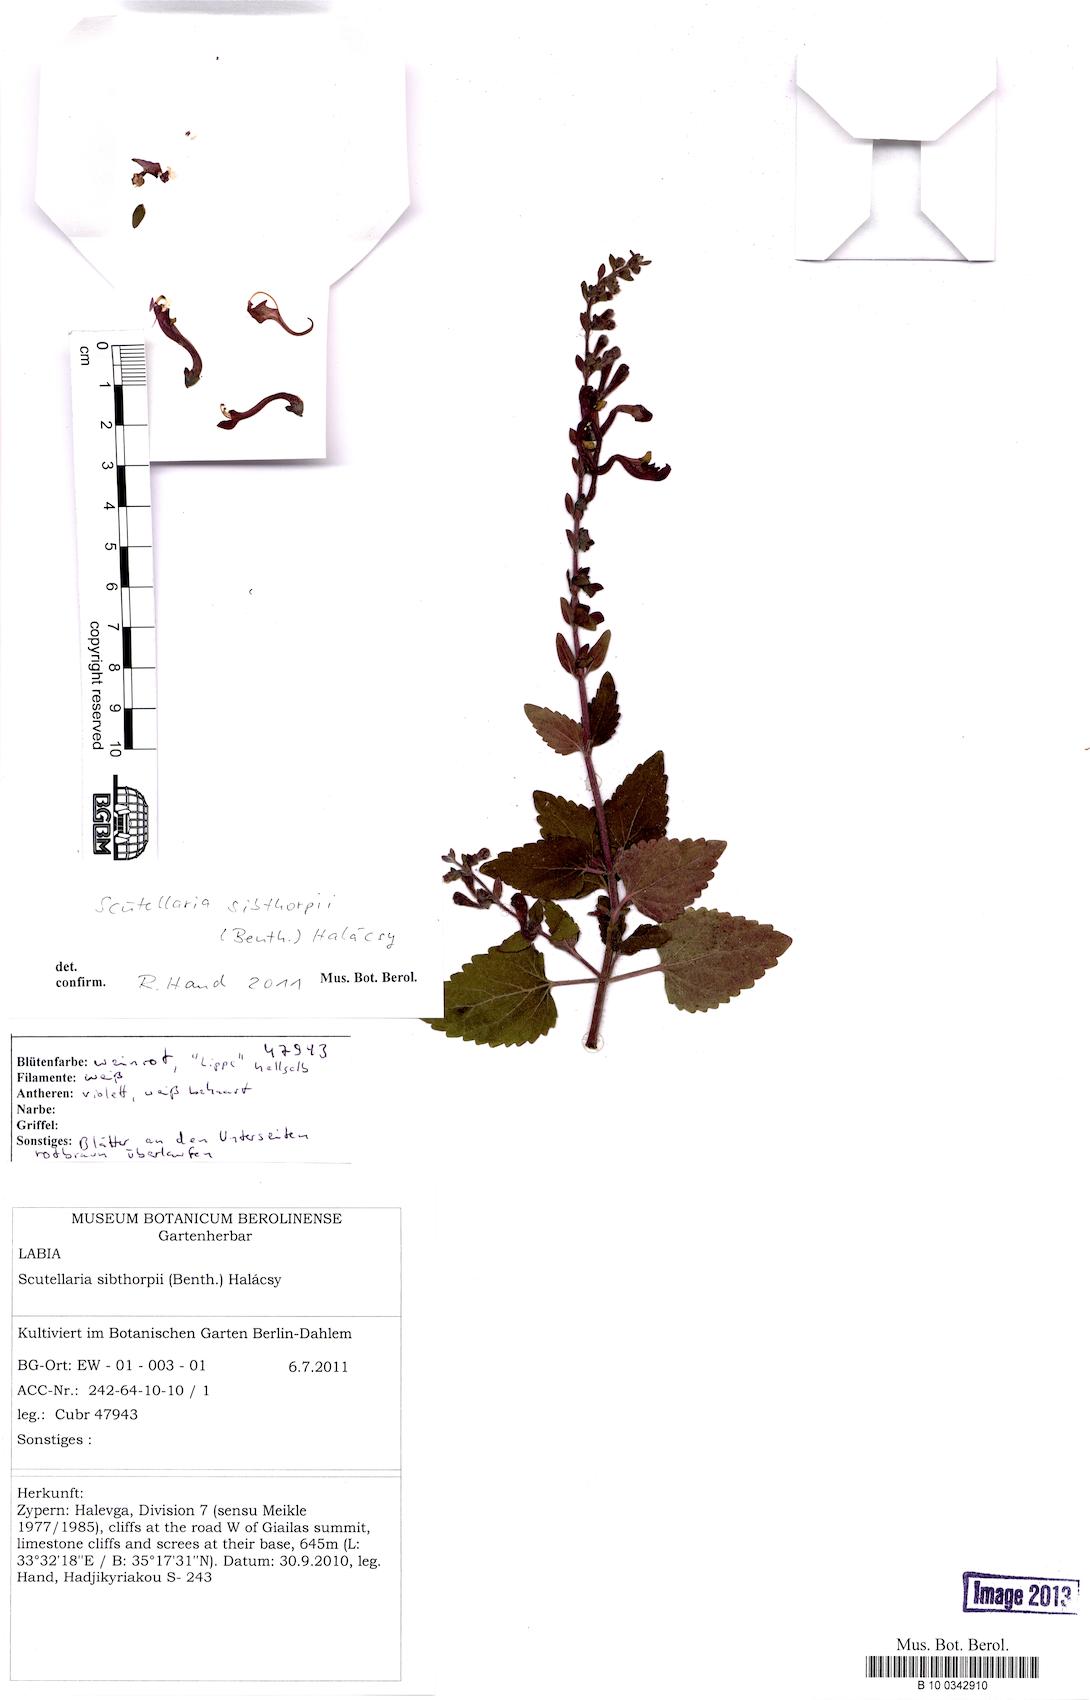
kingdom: Plantae
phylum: Tracheophyta
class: Magnoliopsida
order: Lamiales
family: Lamiaceae
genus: Scutellaria
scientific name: Scutellaria sibthorpii
